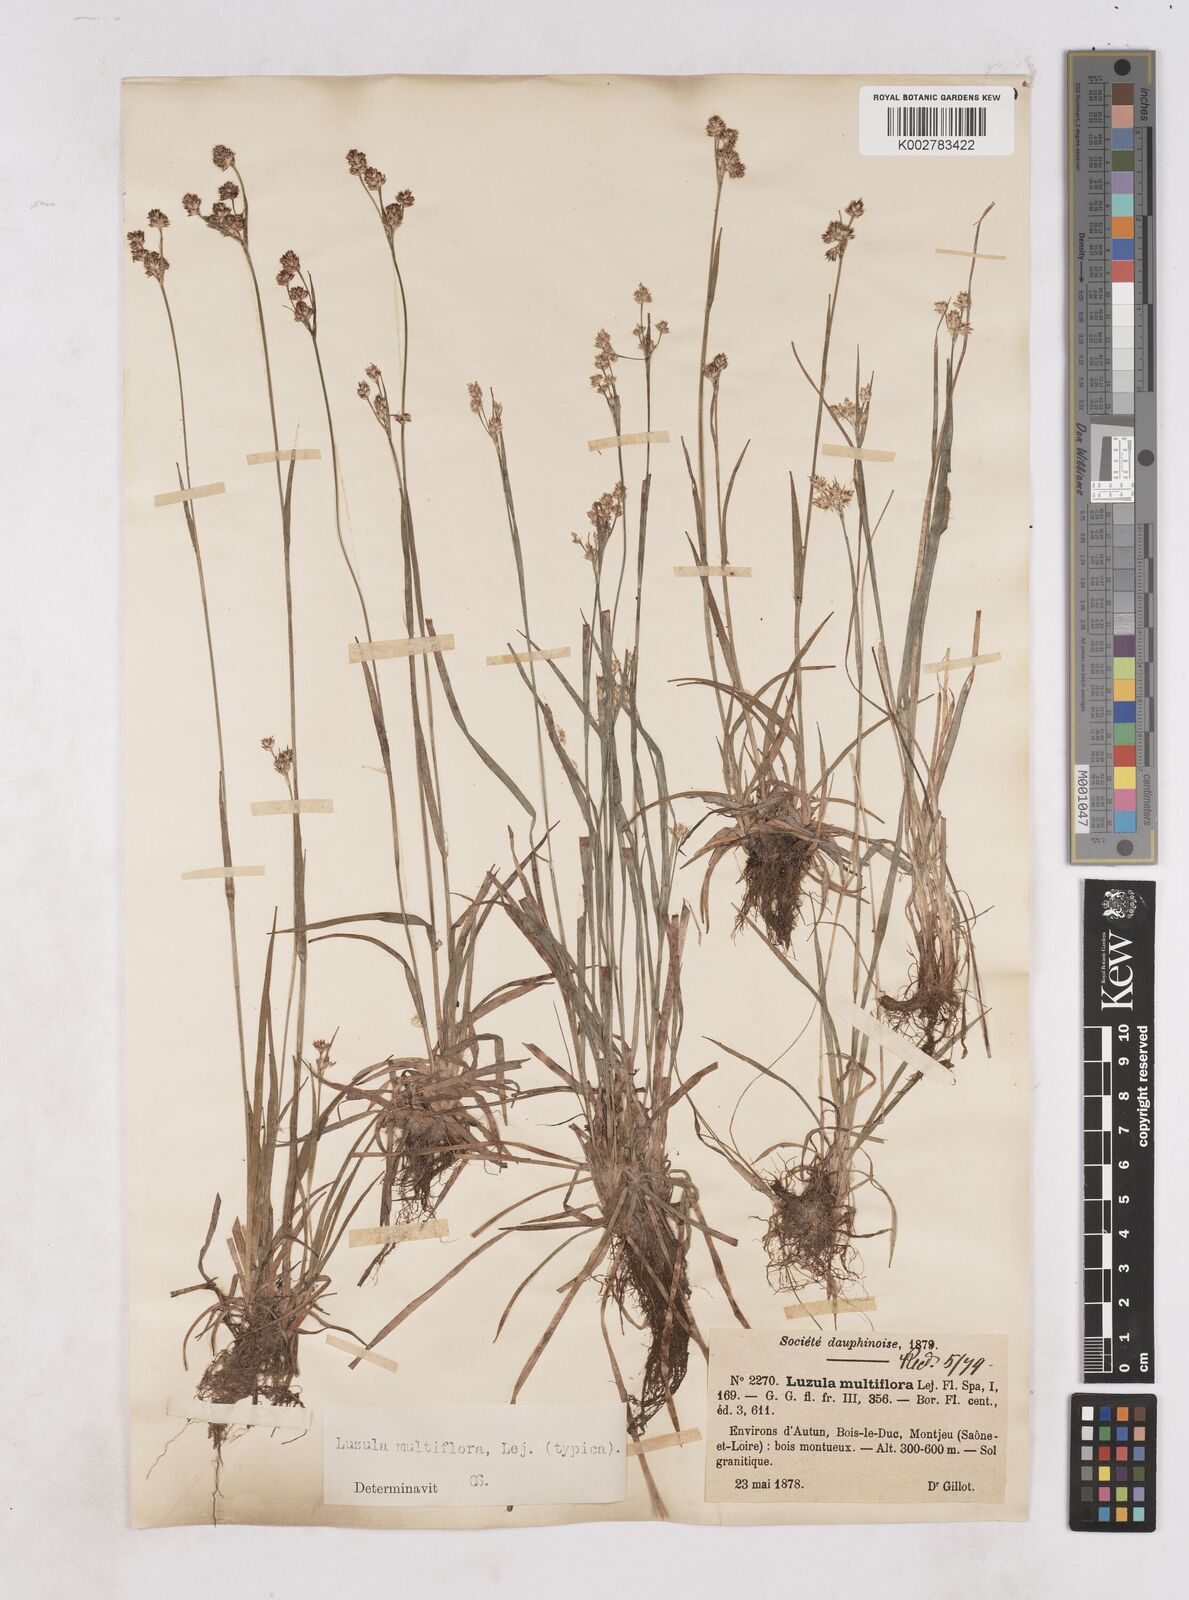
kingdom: Plantae
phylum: Tracheophyta
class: Liliopsida
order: Poales
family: Juncaceae
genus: Luzula
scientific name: Luzula multiflora
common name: Heath wood-rush
